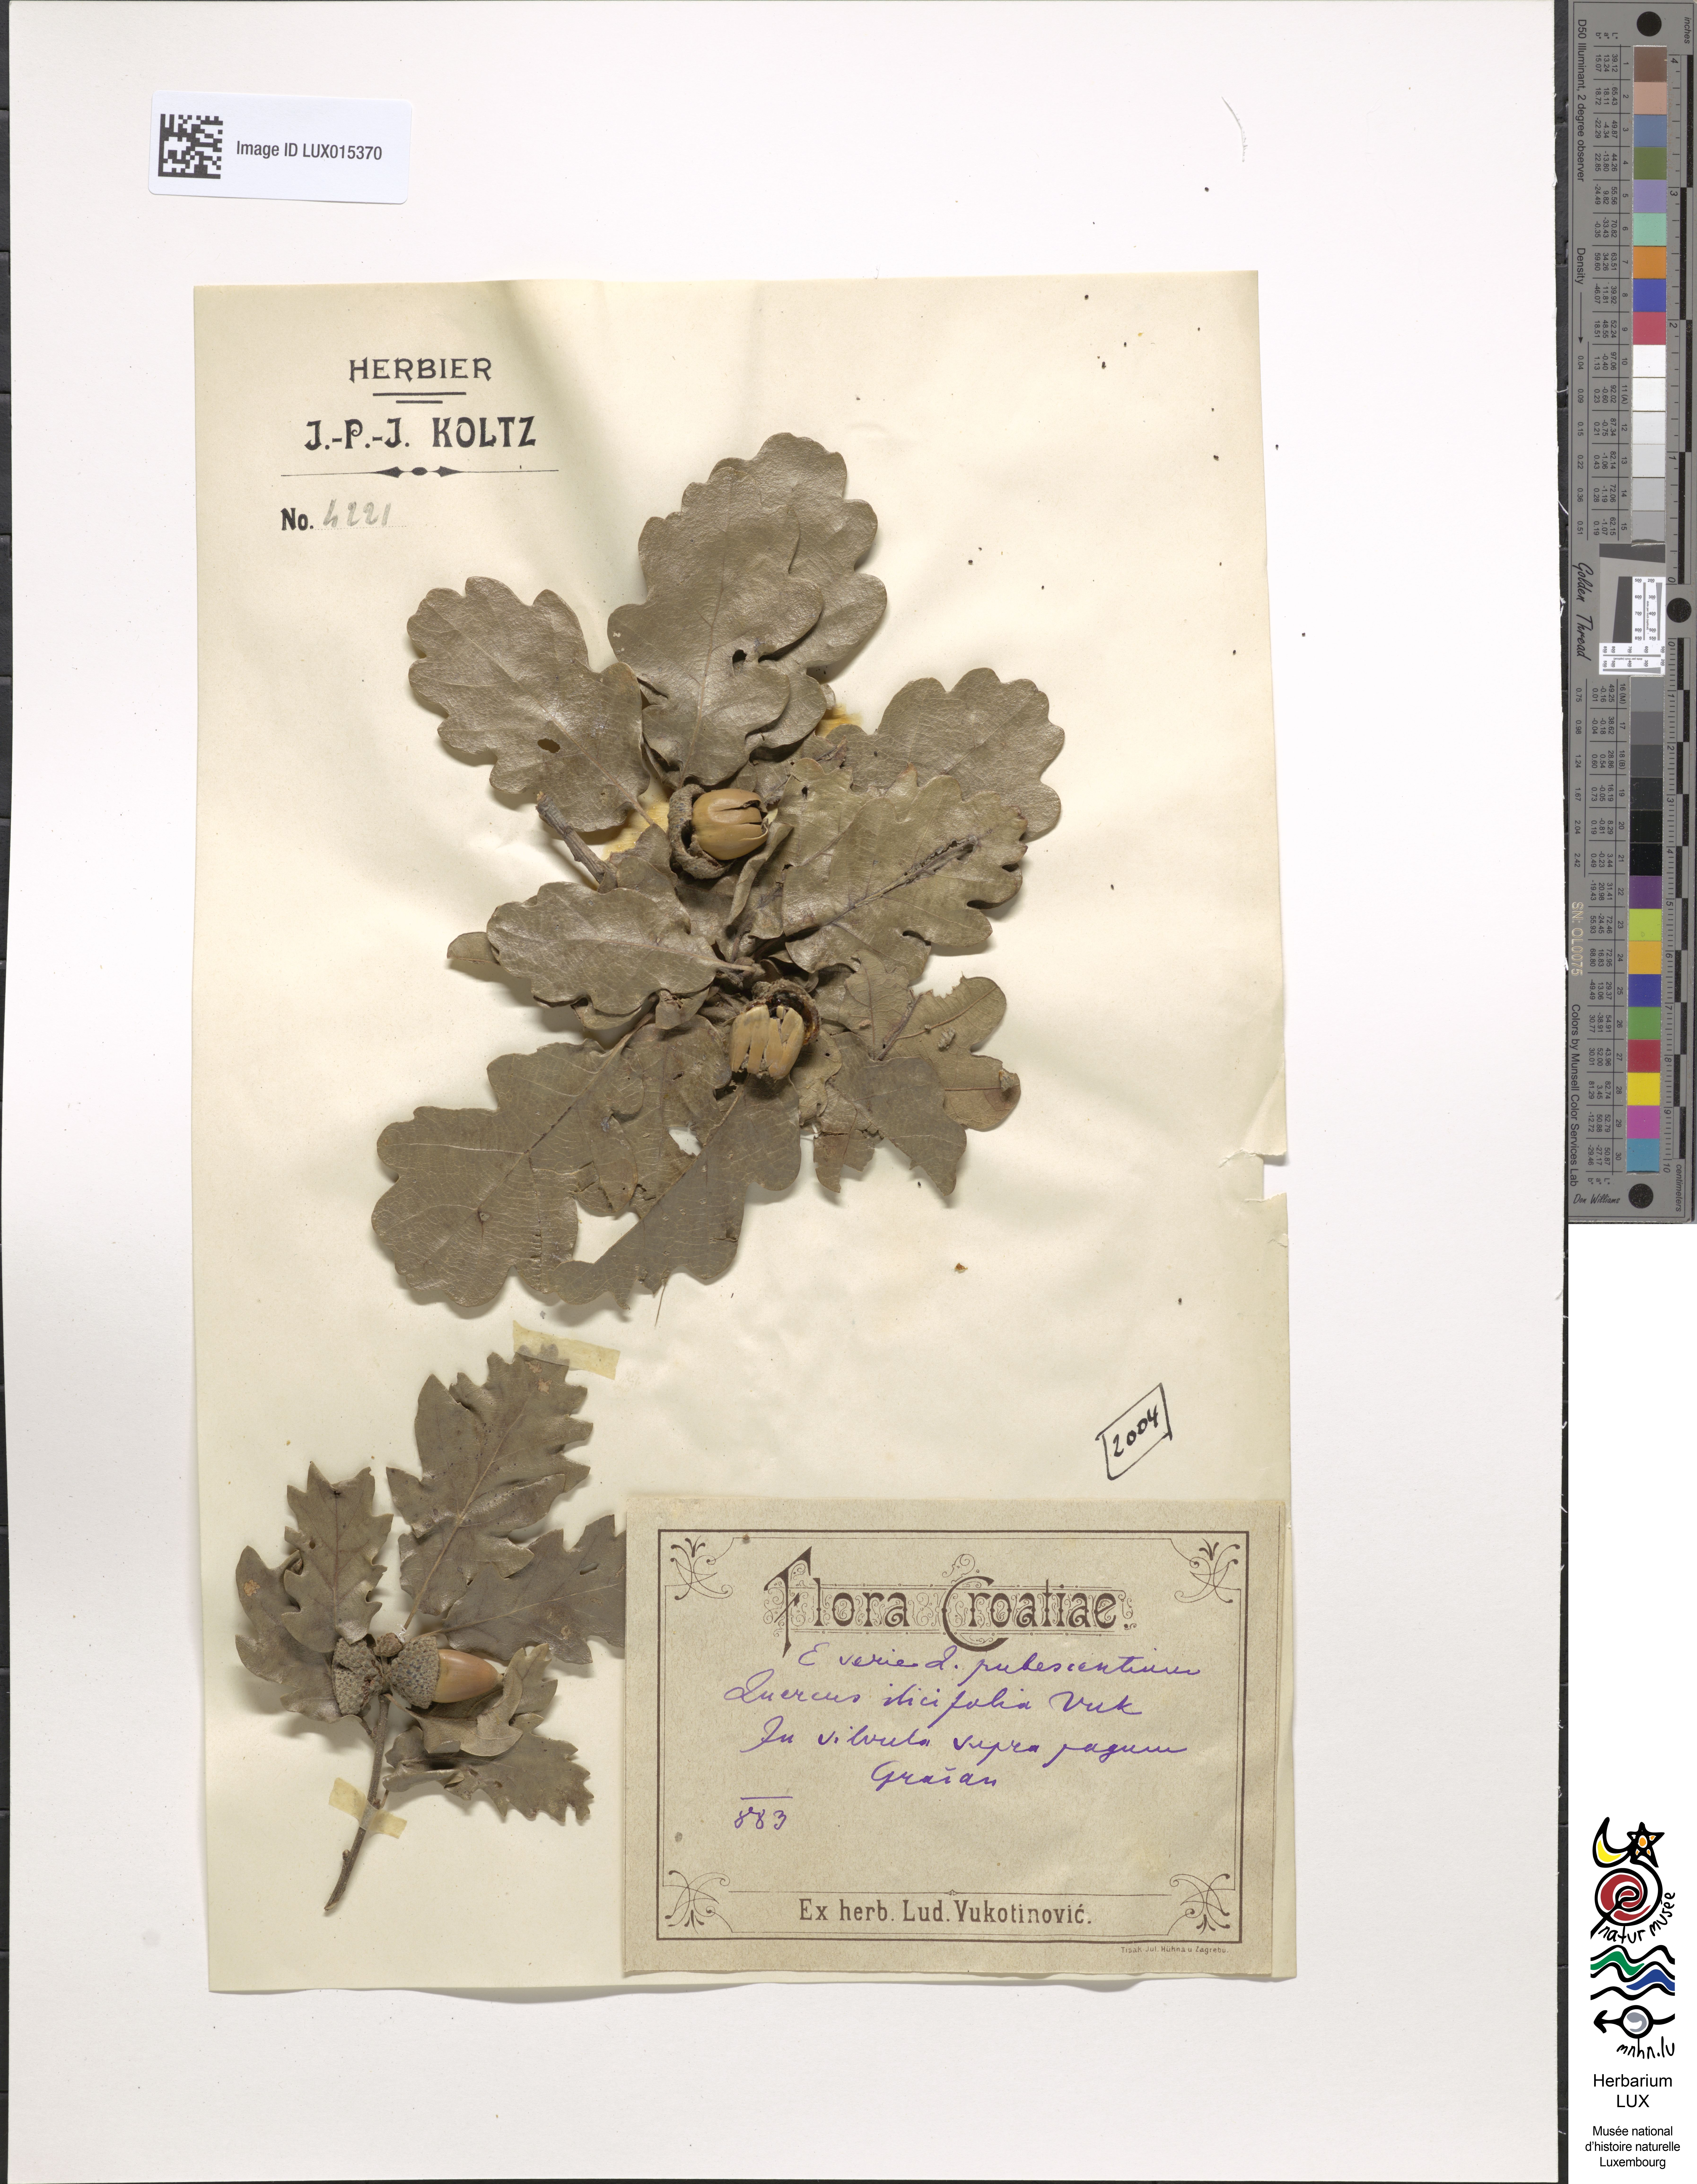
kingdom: Plantae
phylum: Tracheophyta
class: Magnoliopsida
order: Fagales
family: Fagaceae
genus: Quercus
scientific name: Quercus pubescens
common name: Downy oak
